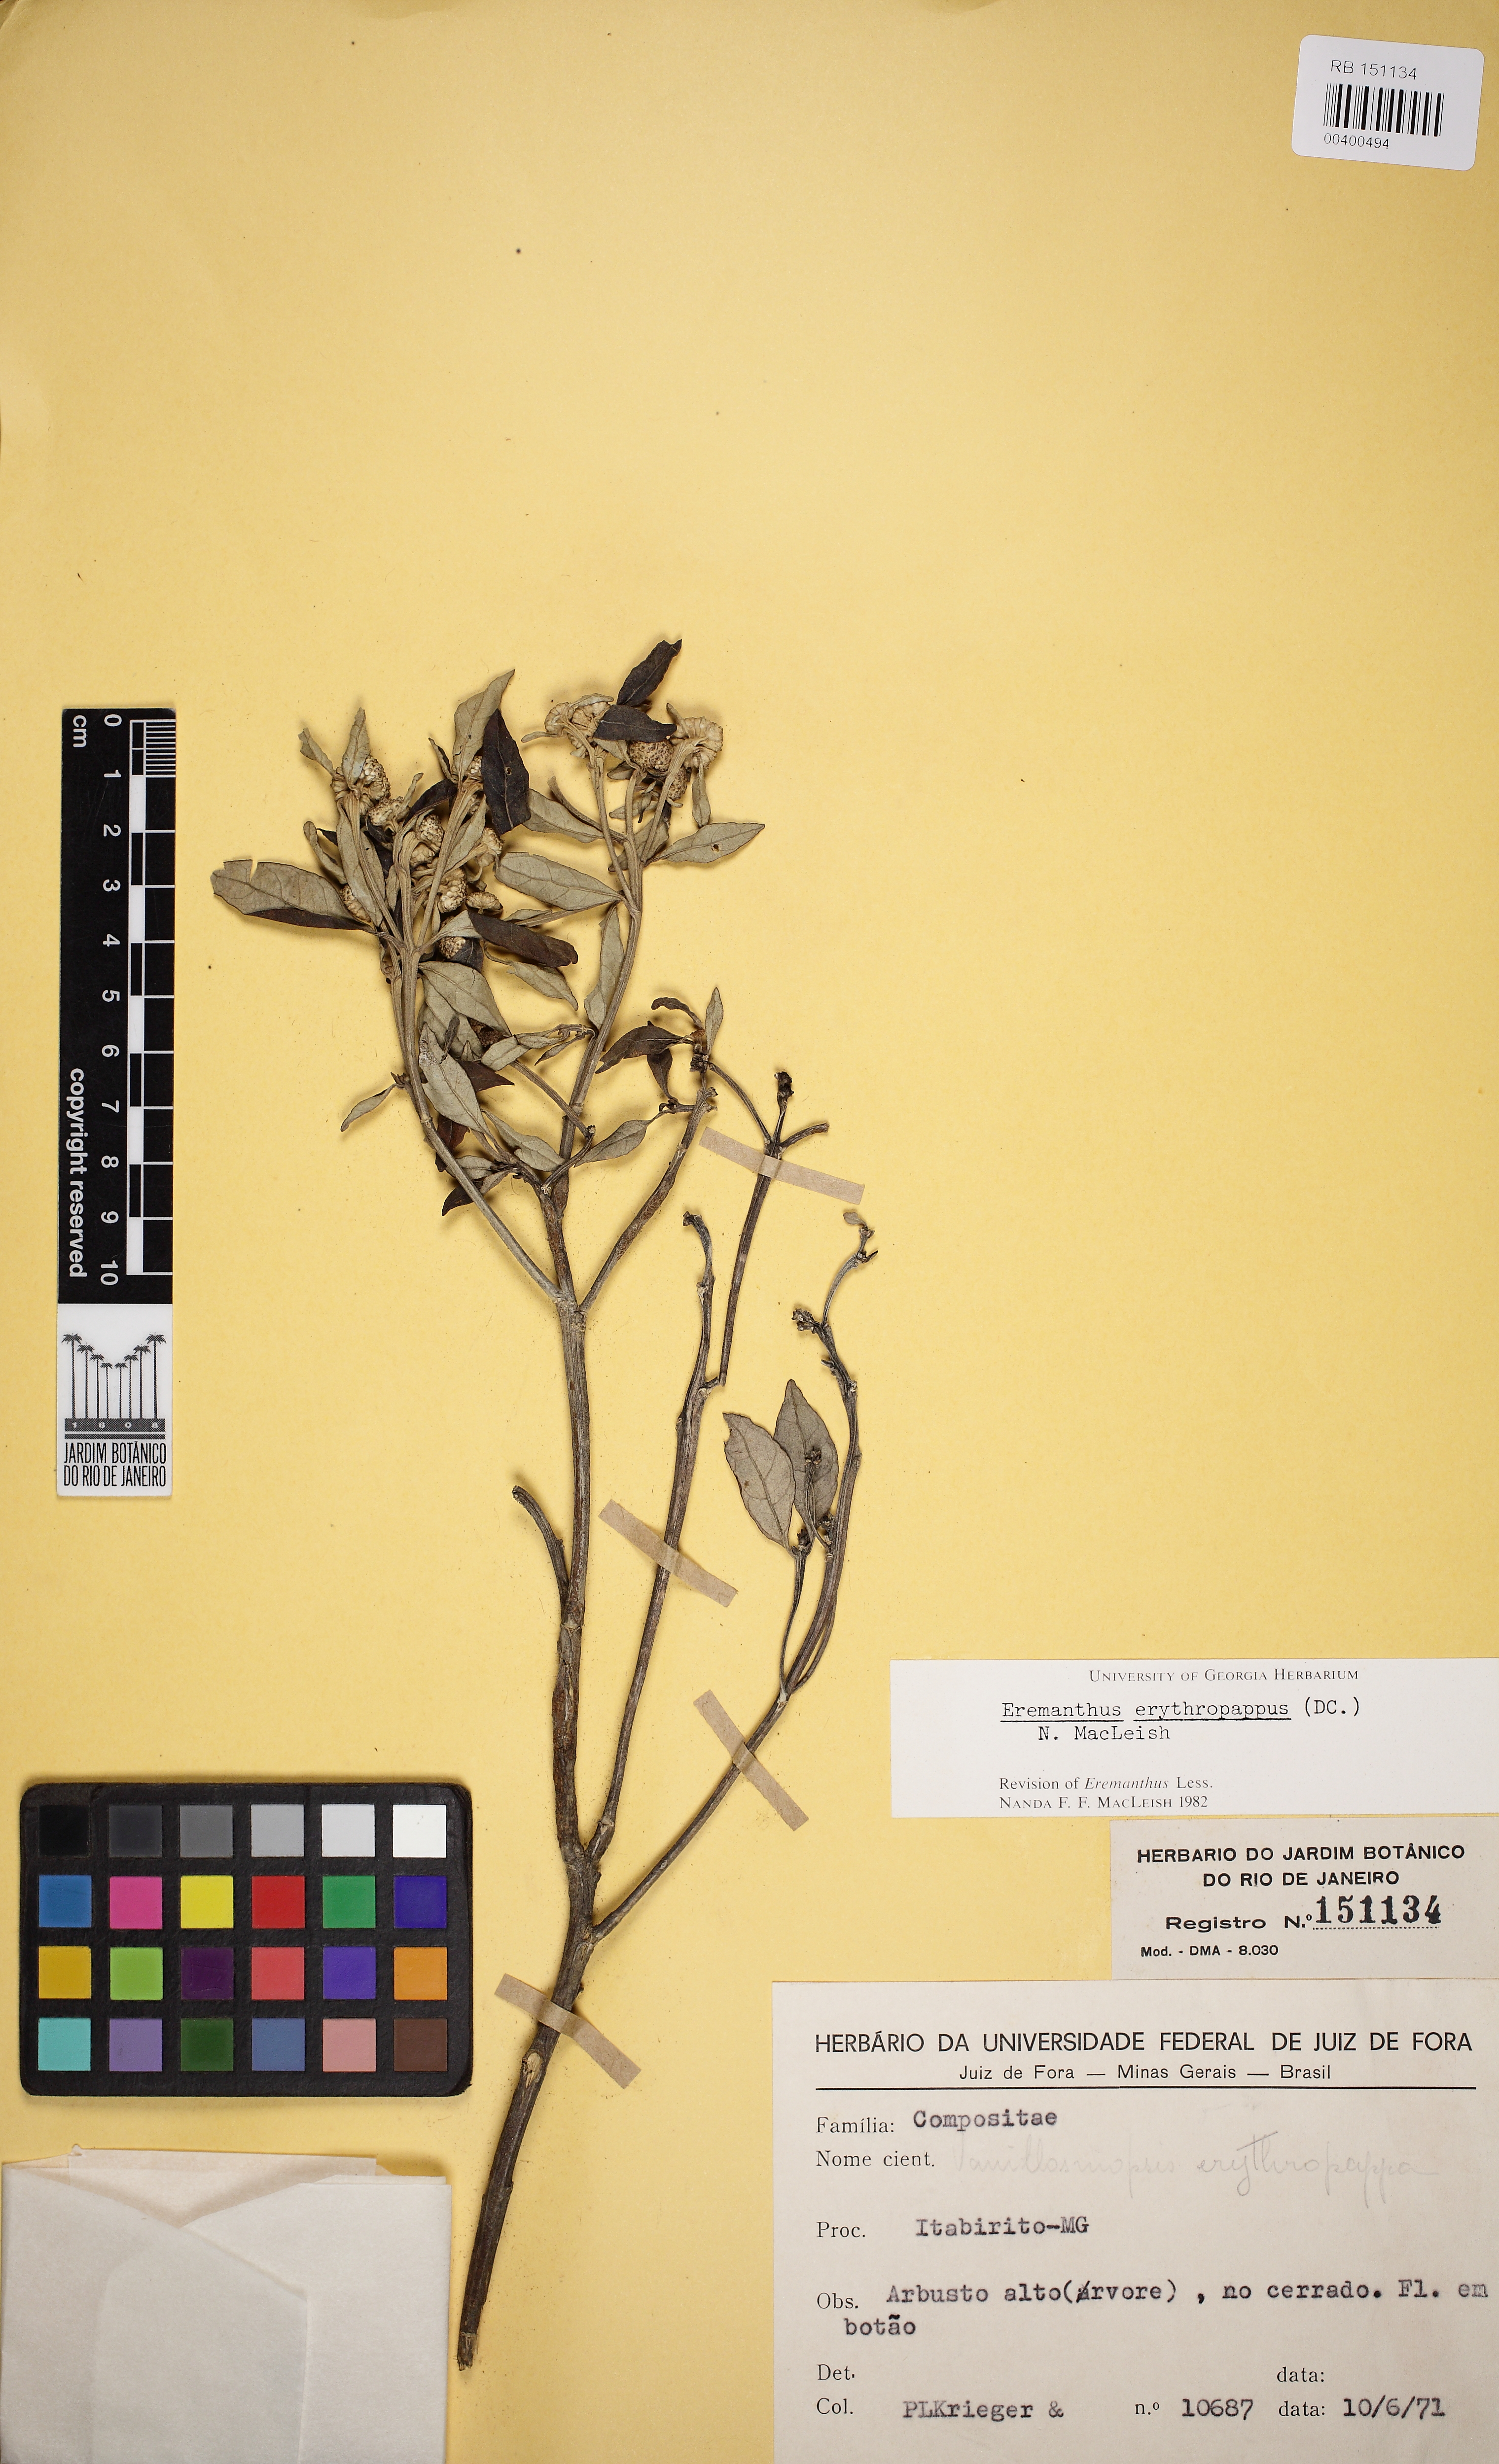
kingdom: Plantae
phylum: Tracheophyta
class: Magnoliopsida
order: Asterales
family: Asteraceae
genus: Eremanthus
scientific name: Eremanthus erythropappus
